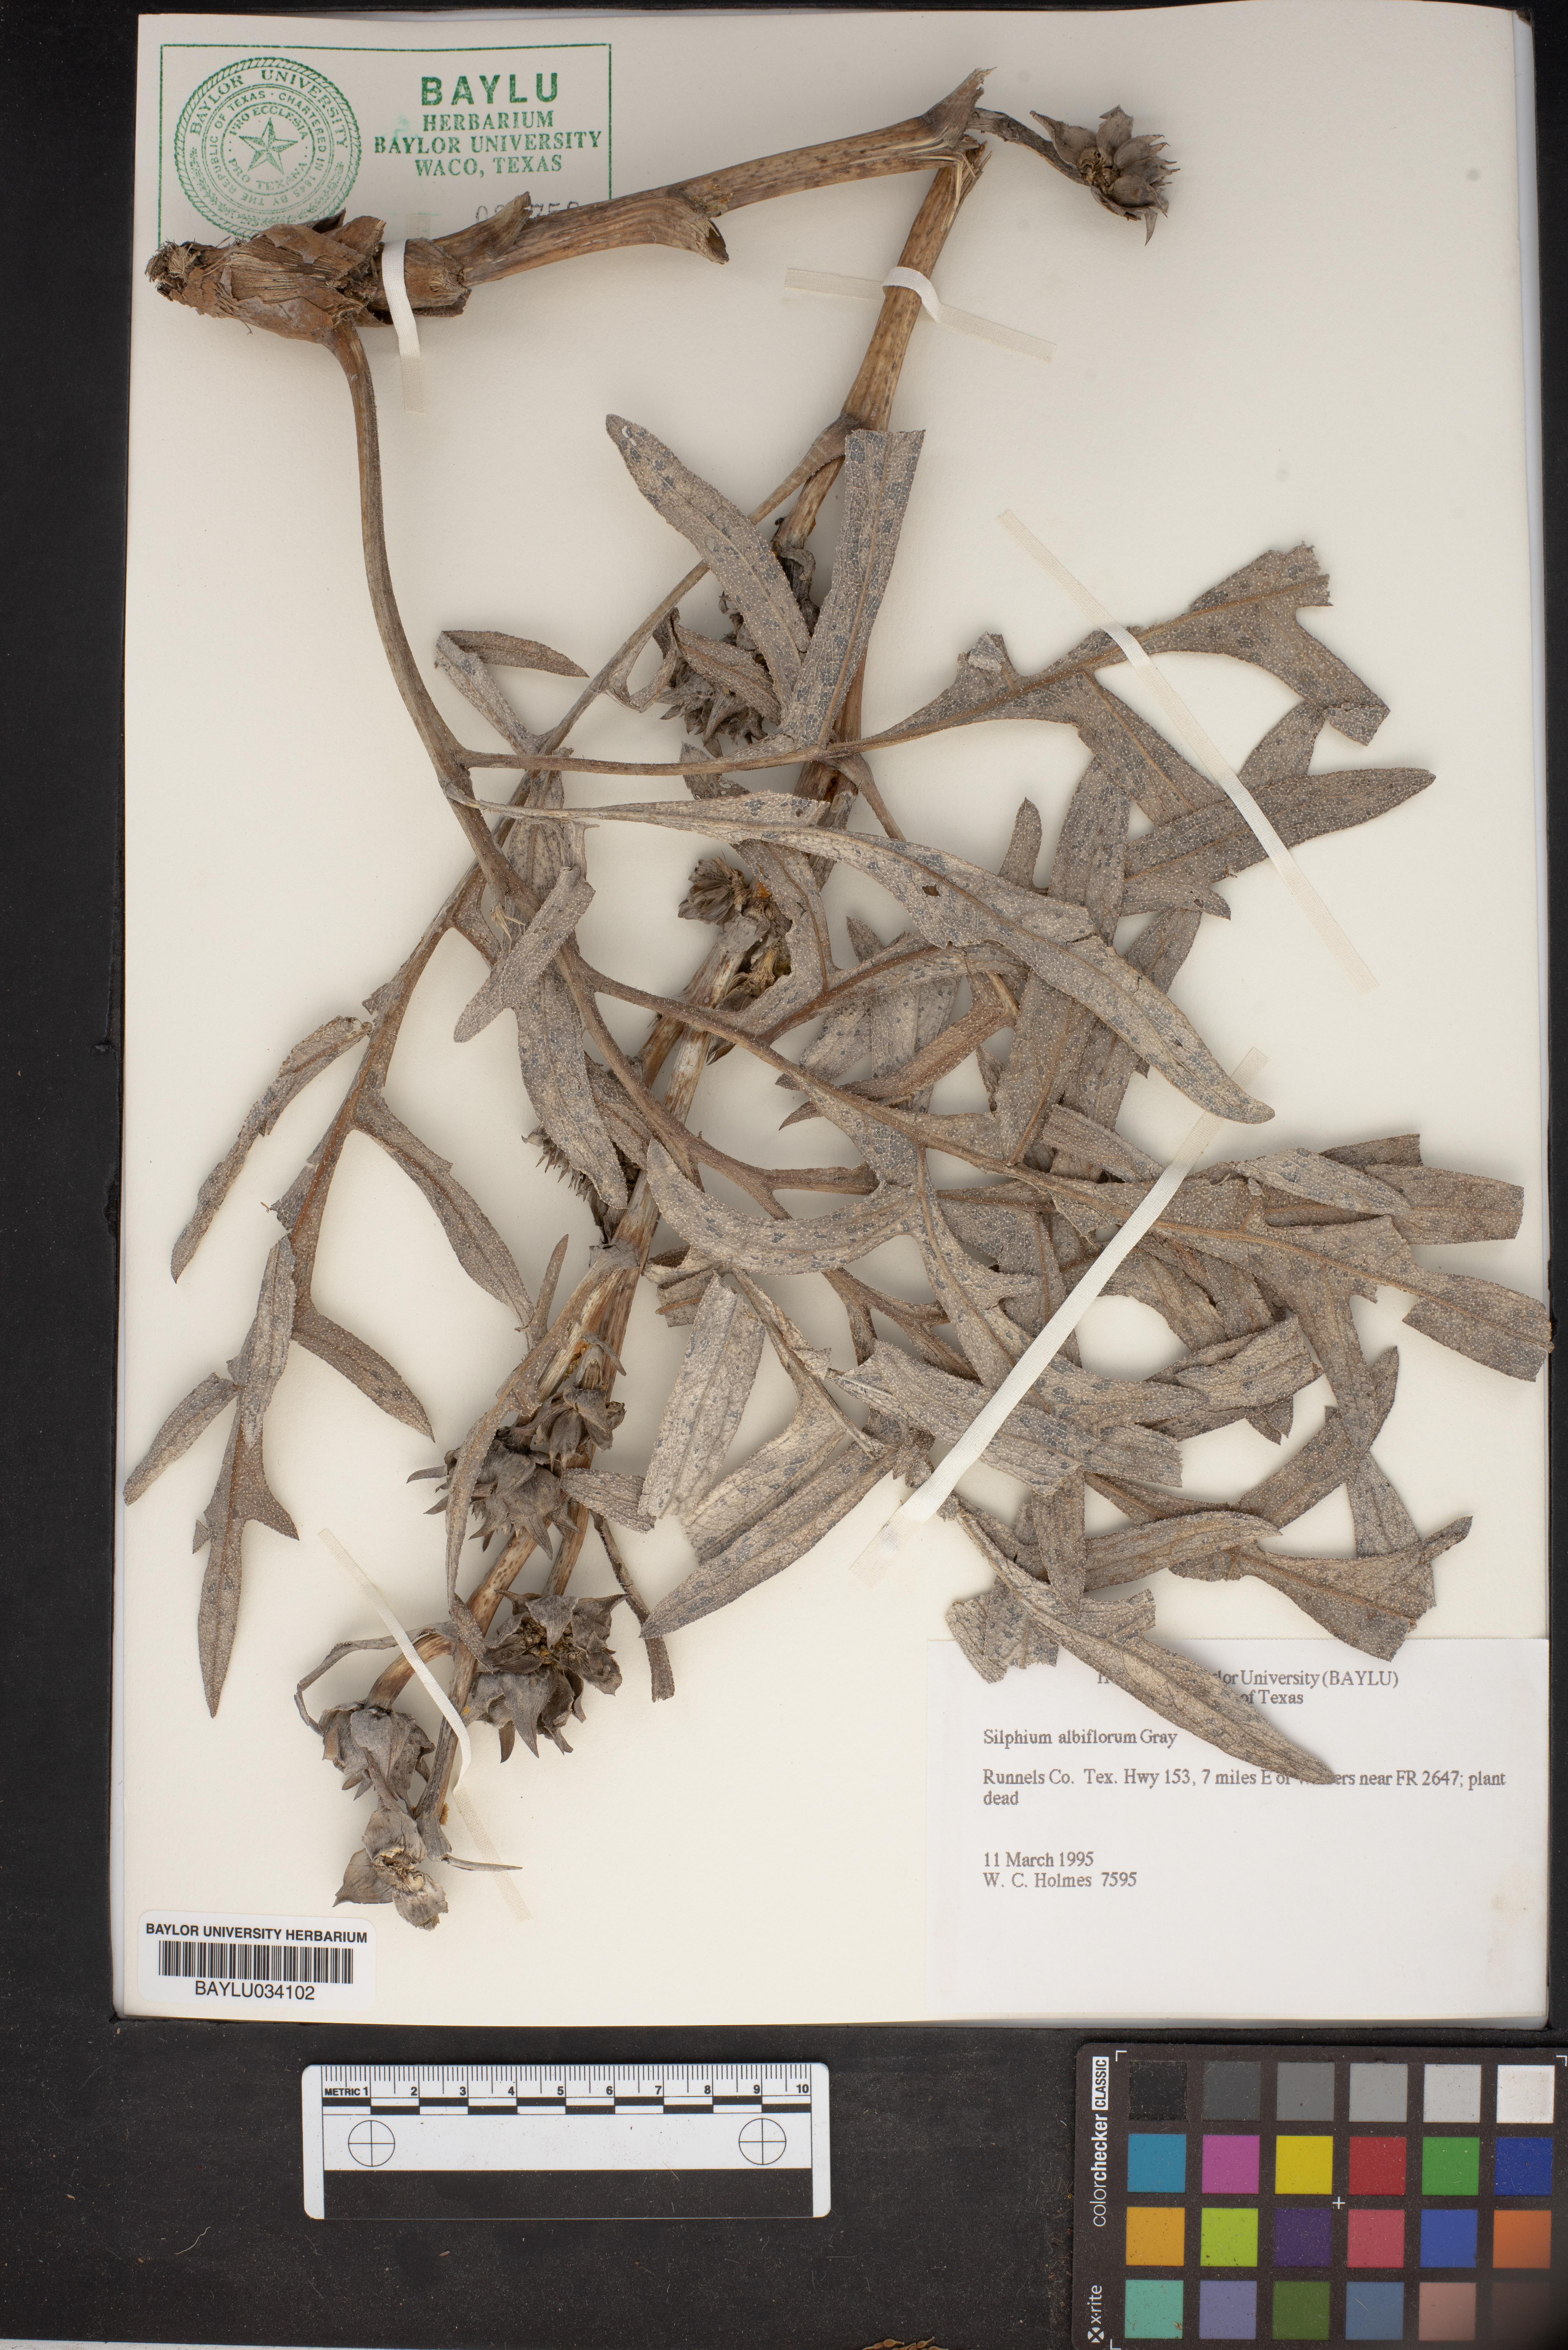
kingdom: Plantae
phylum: Tracheophyta
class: Magnoliopsida
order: Asterales
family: Asteraceae
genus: Silphium
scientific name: Silphium albiflorum
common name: White rosinweed
